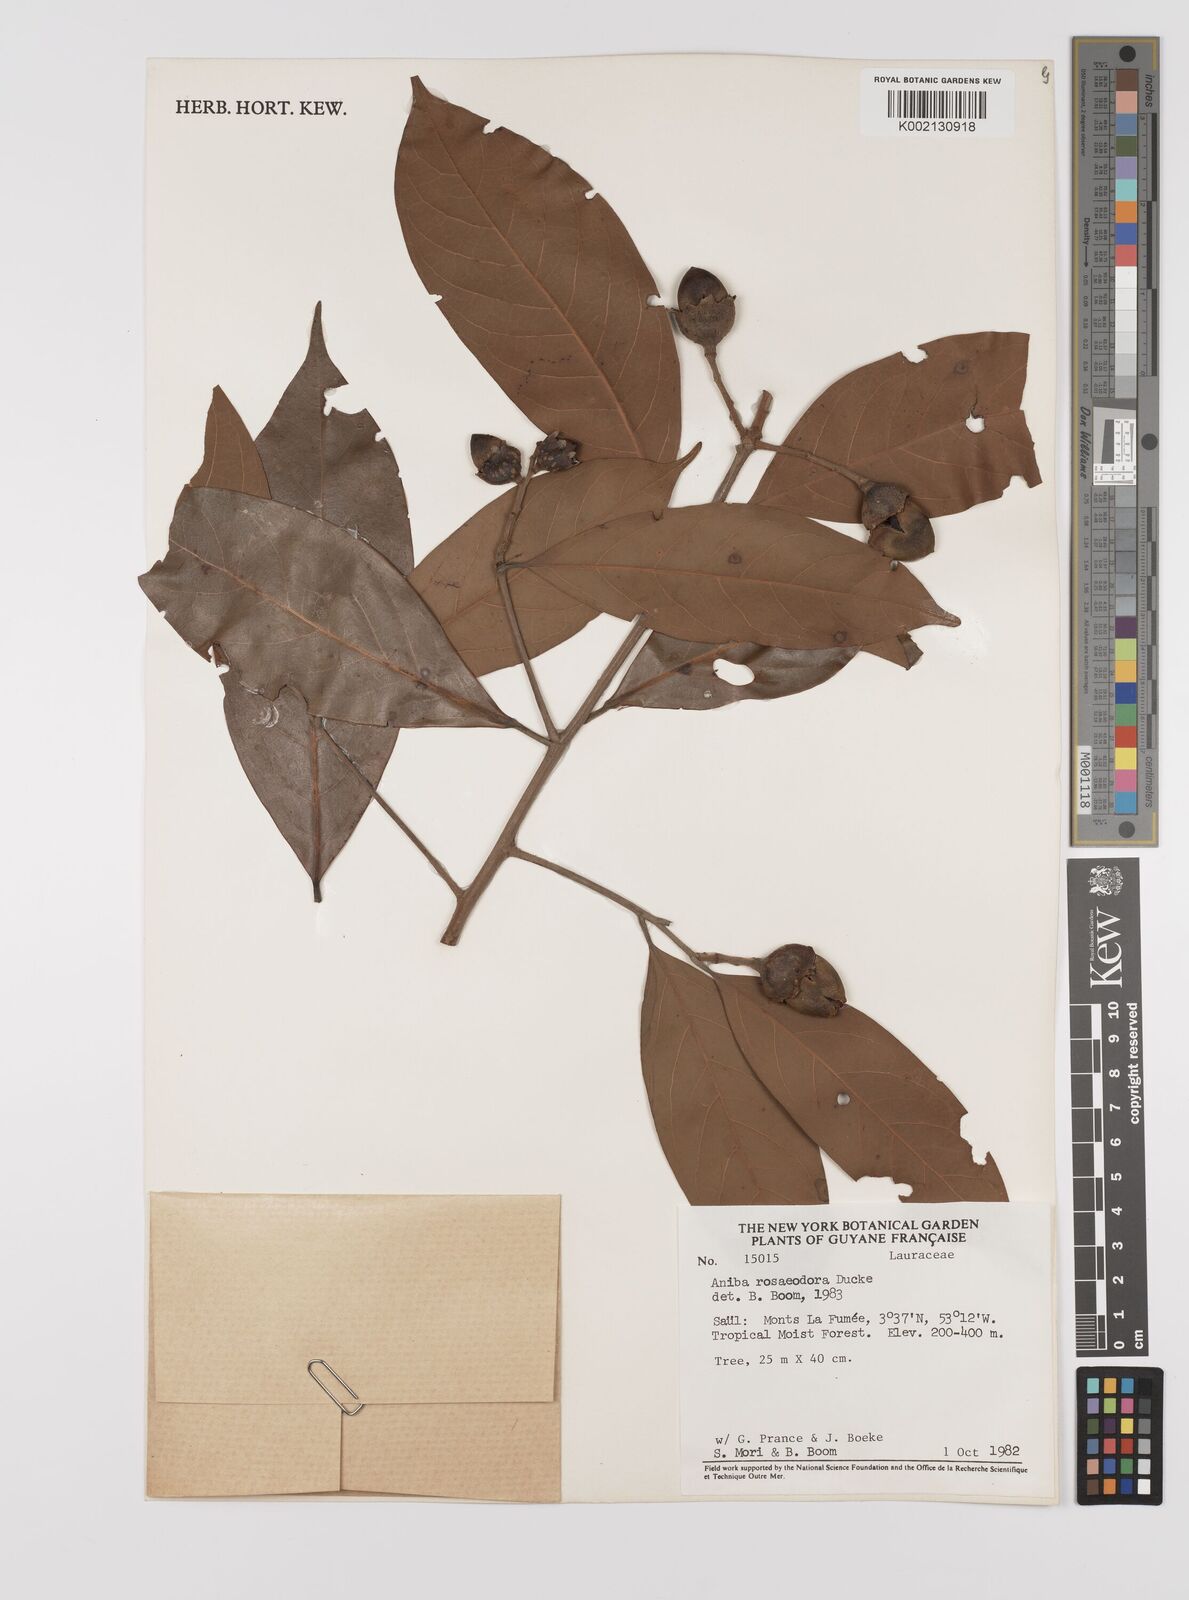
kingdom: Plantae
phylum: Tracheophyta
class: Magnoliopsida
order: Laurales
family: Lauraceae
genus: Aniba
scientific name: Aniba rosodora
